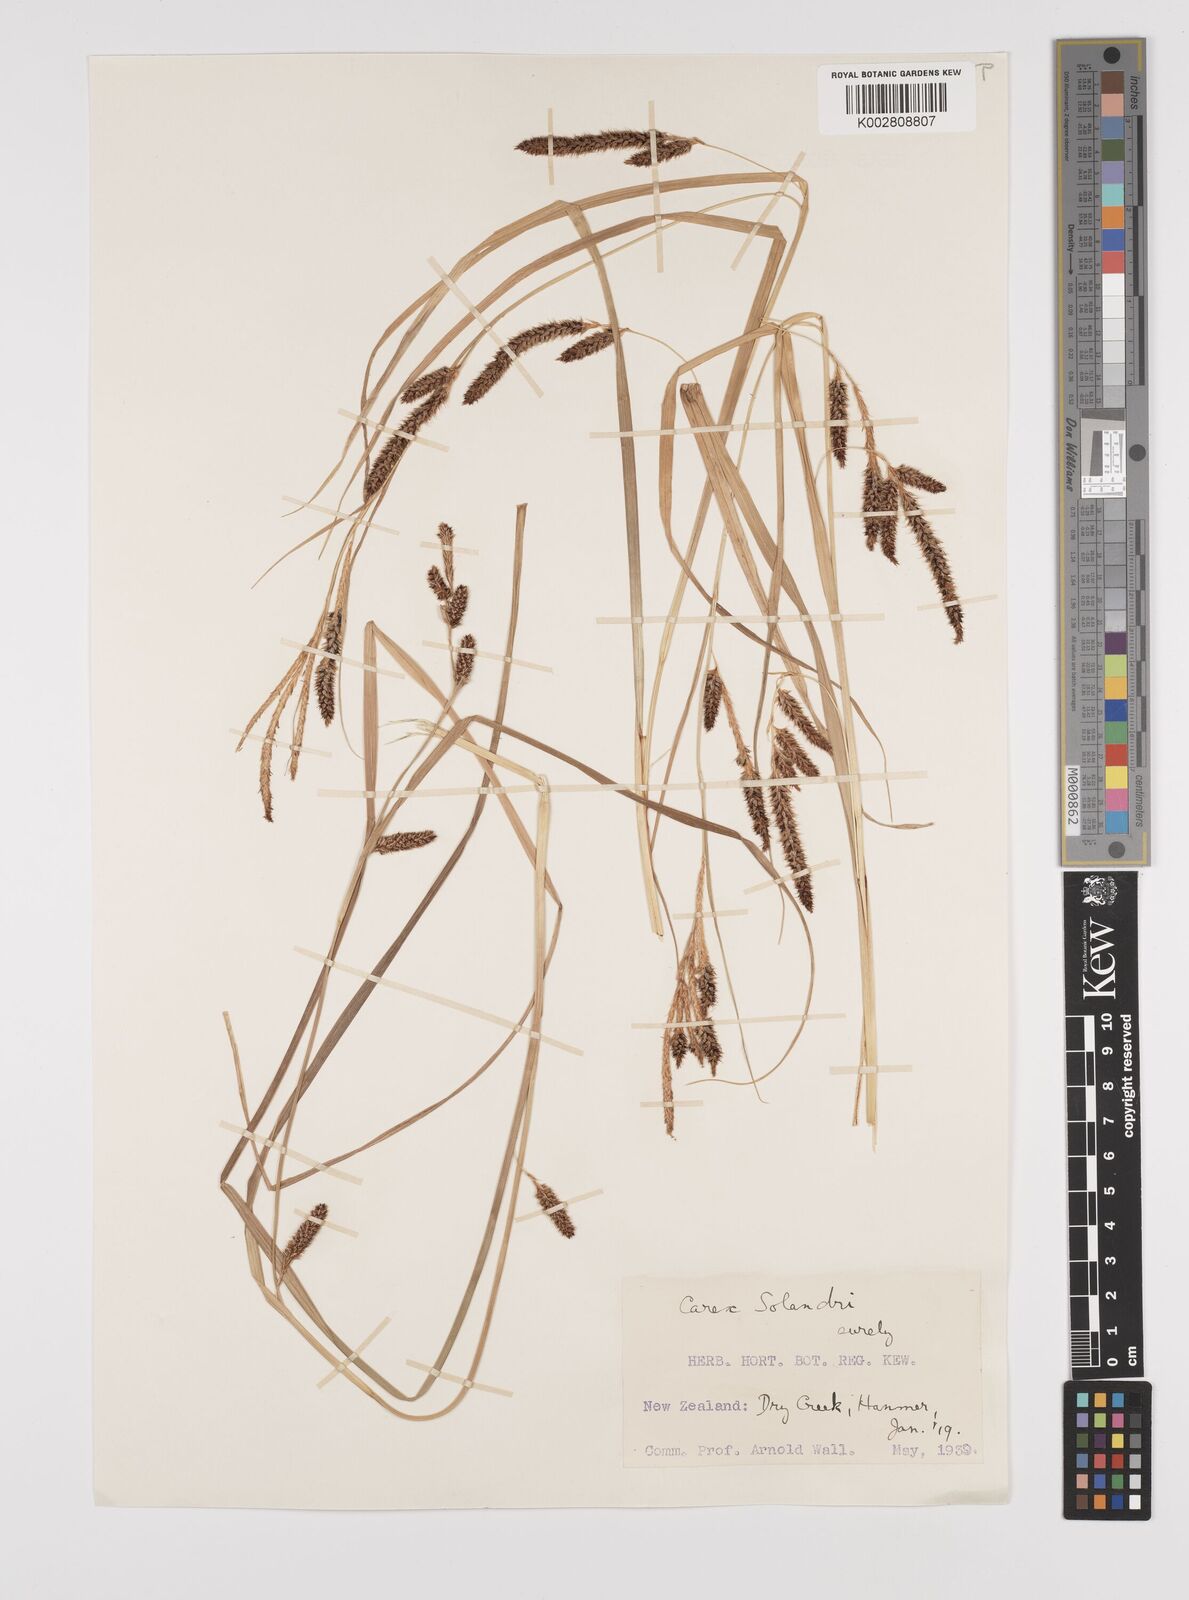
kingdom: Plantae
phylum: Tracheophyta
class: Liliopsida
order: Poales
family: Cyperaceae
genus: Carex
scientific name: Carex dissita
